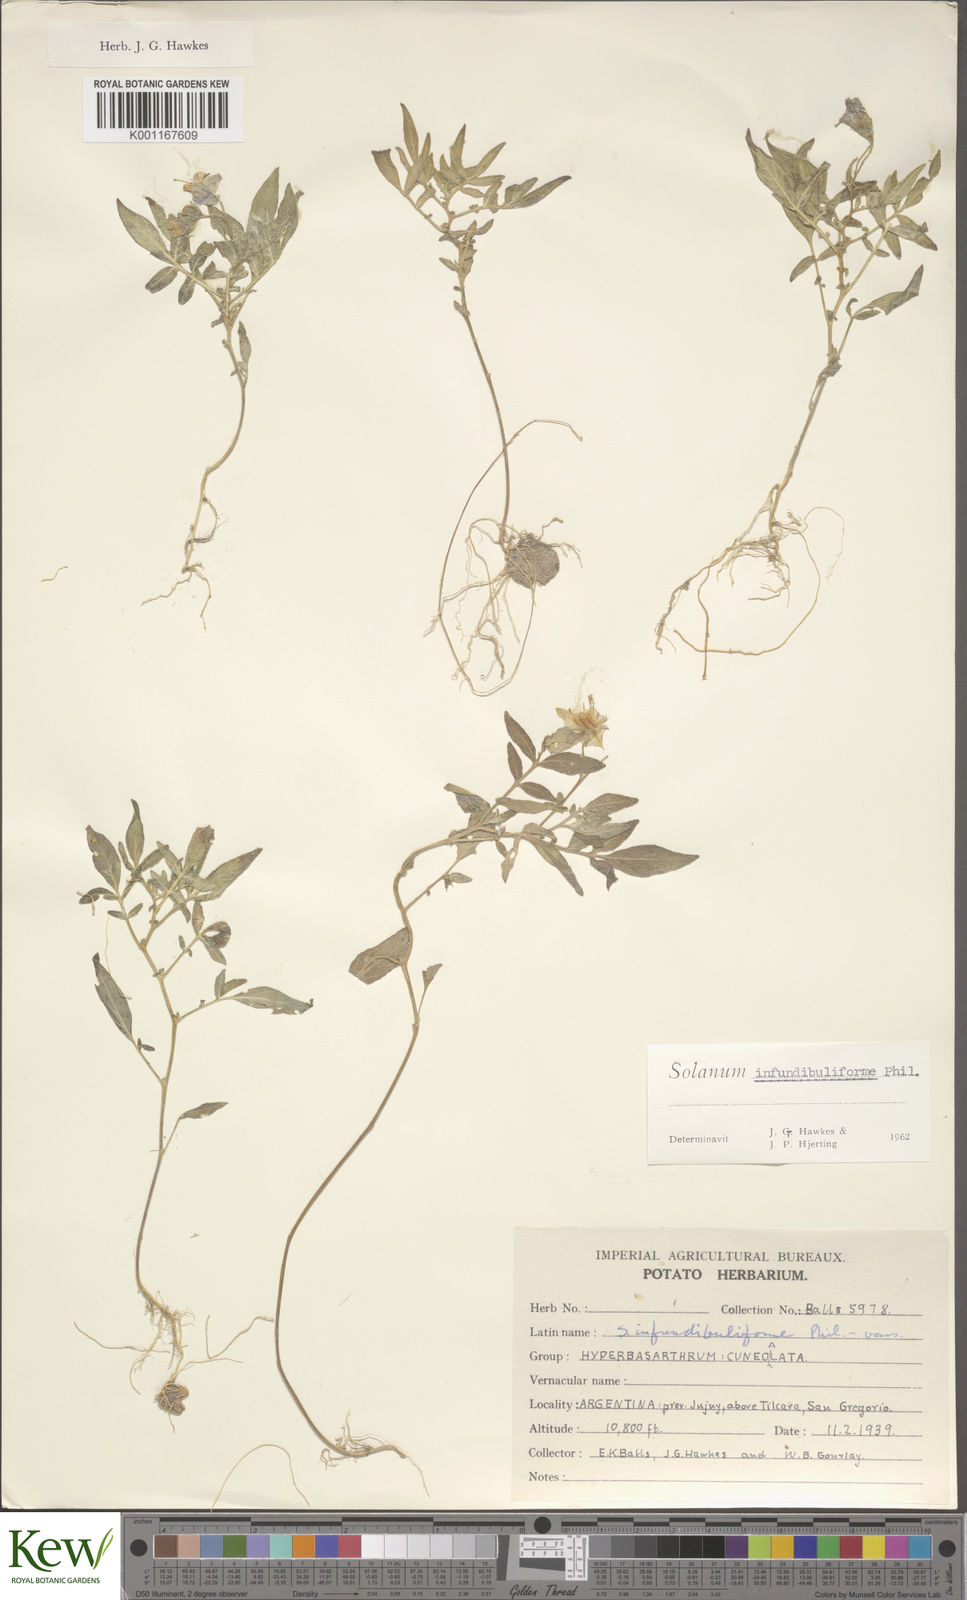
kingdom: Plantae
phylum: Tracheophyta
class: Magnoliopsida
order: Solanales
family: Solanaceae
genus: Solanum
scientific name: Solanum infundibuliforme
